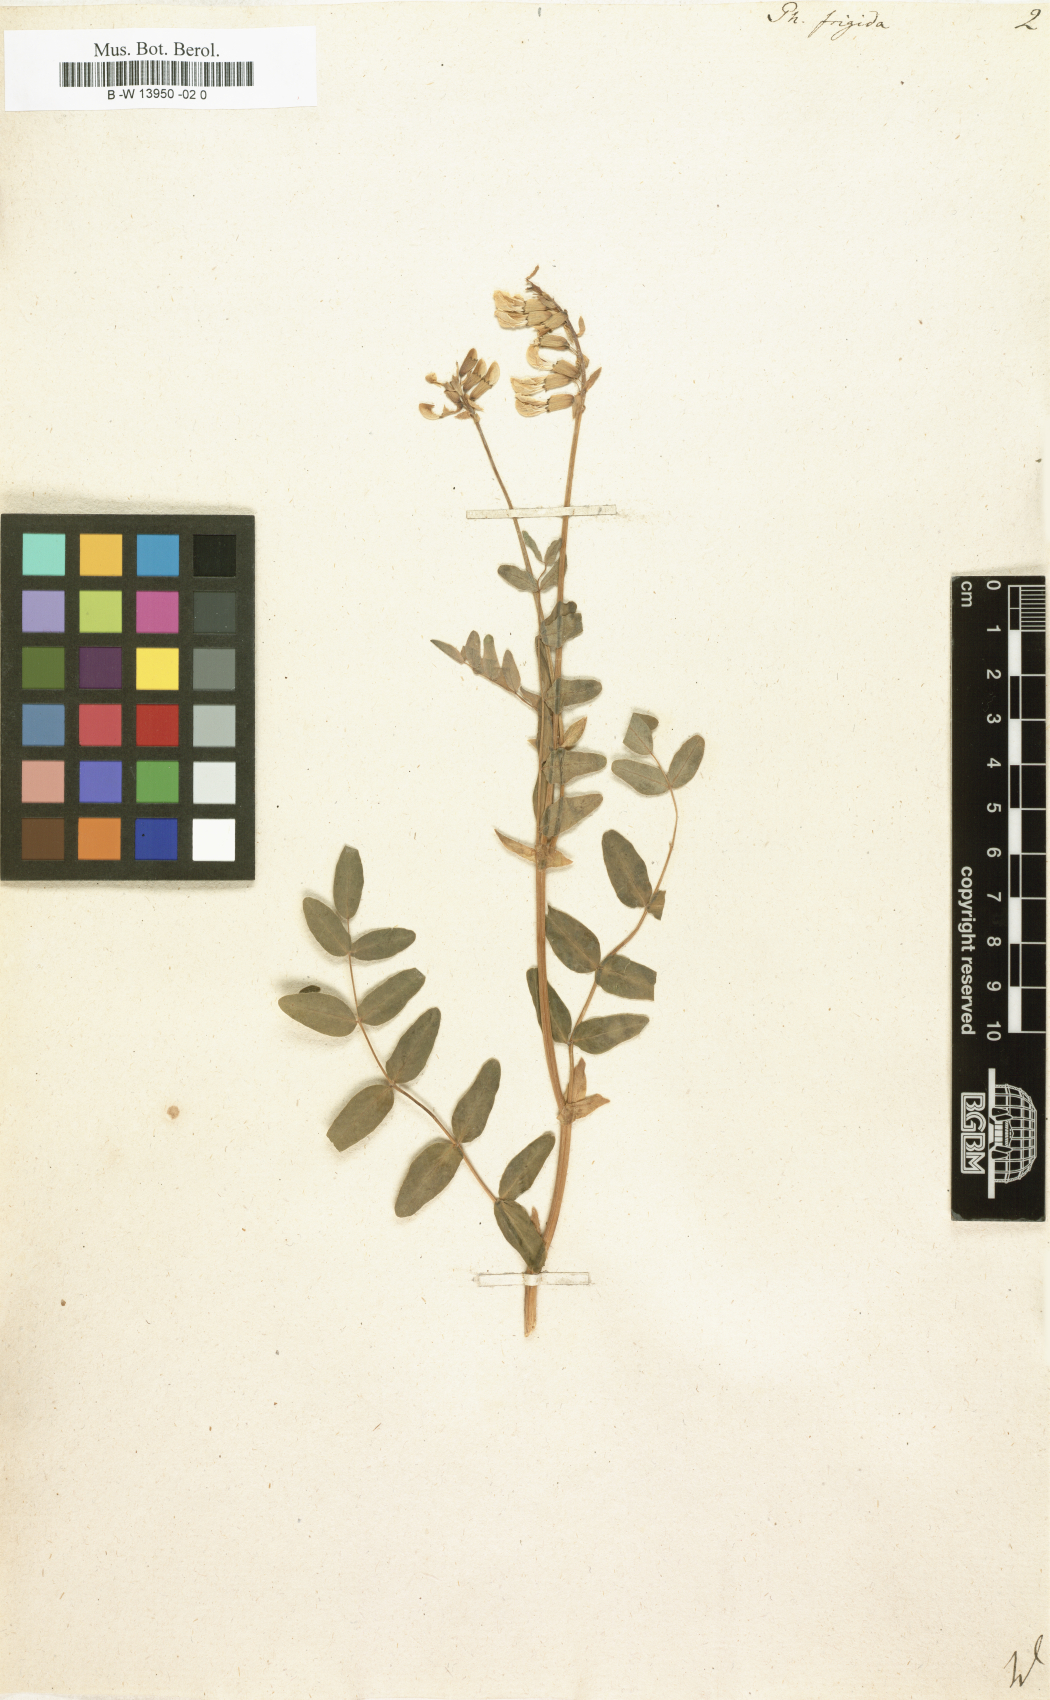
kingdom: Plantae
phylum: Tracheophyta
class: Magnoliopsida
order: Fabales
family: Fabaceae
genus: Astragalus
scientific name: Astragalus frigidus
